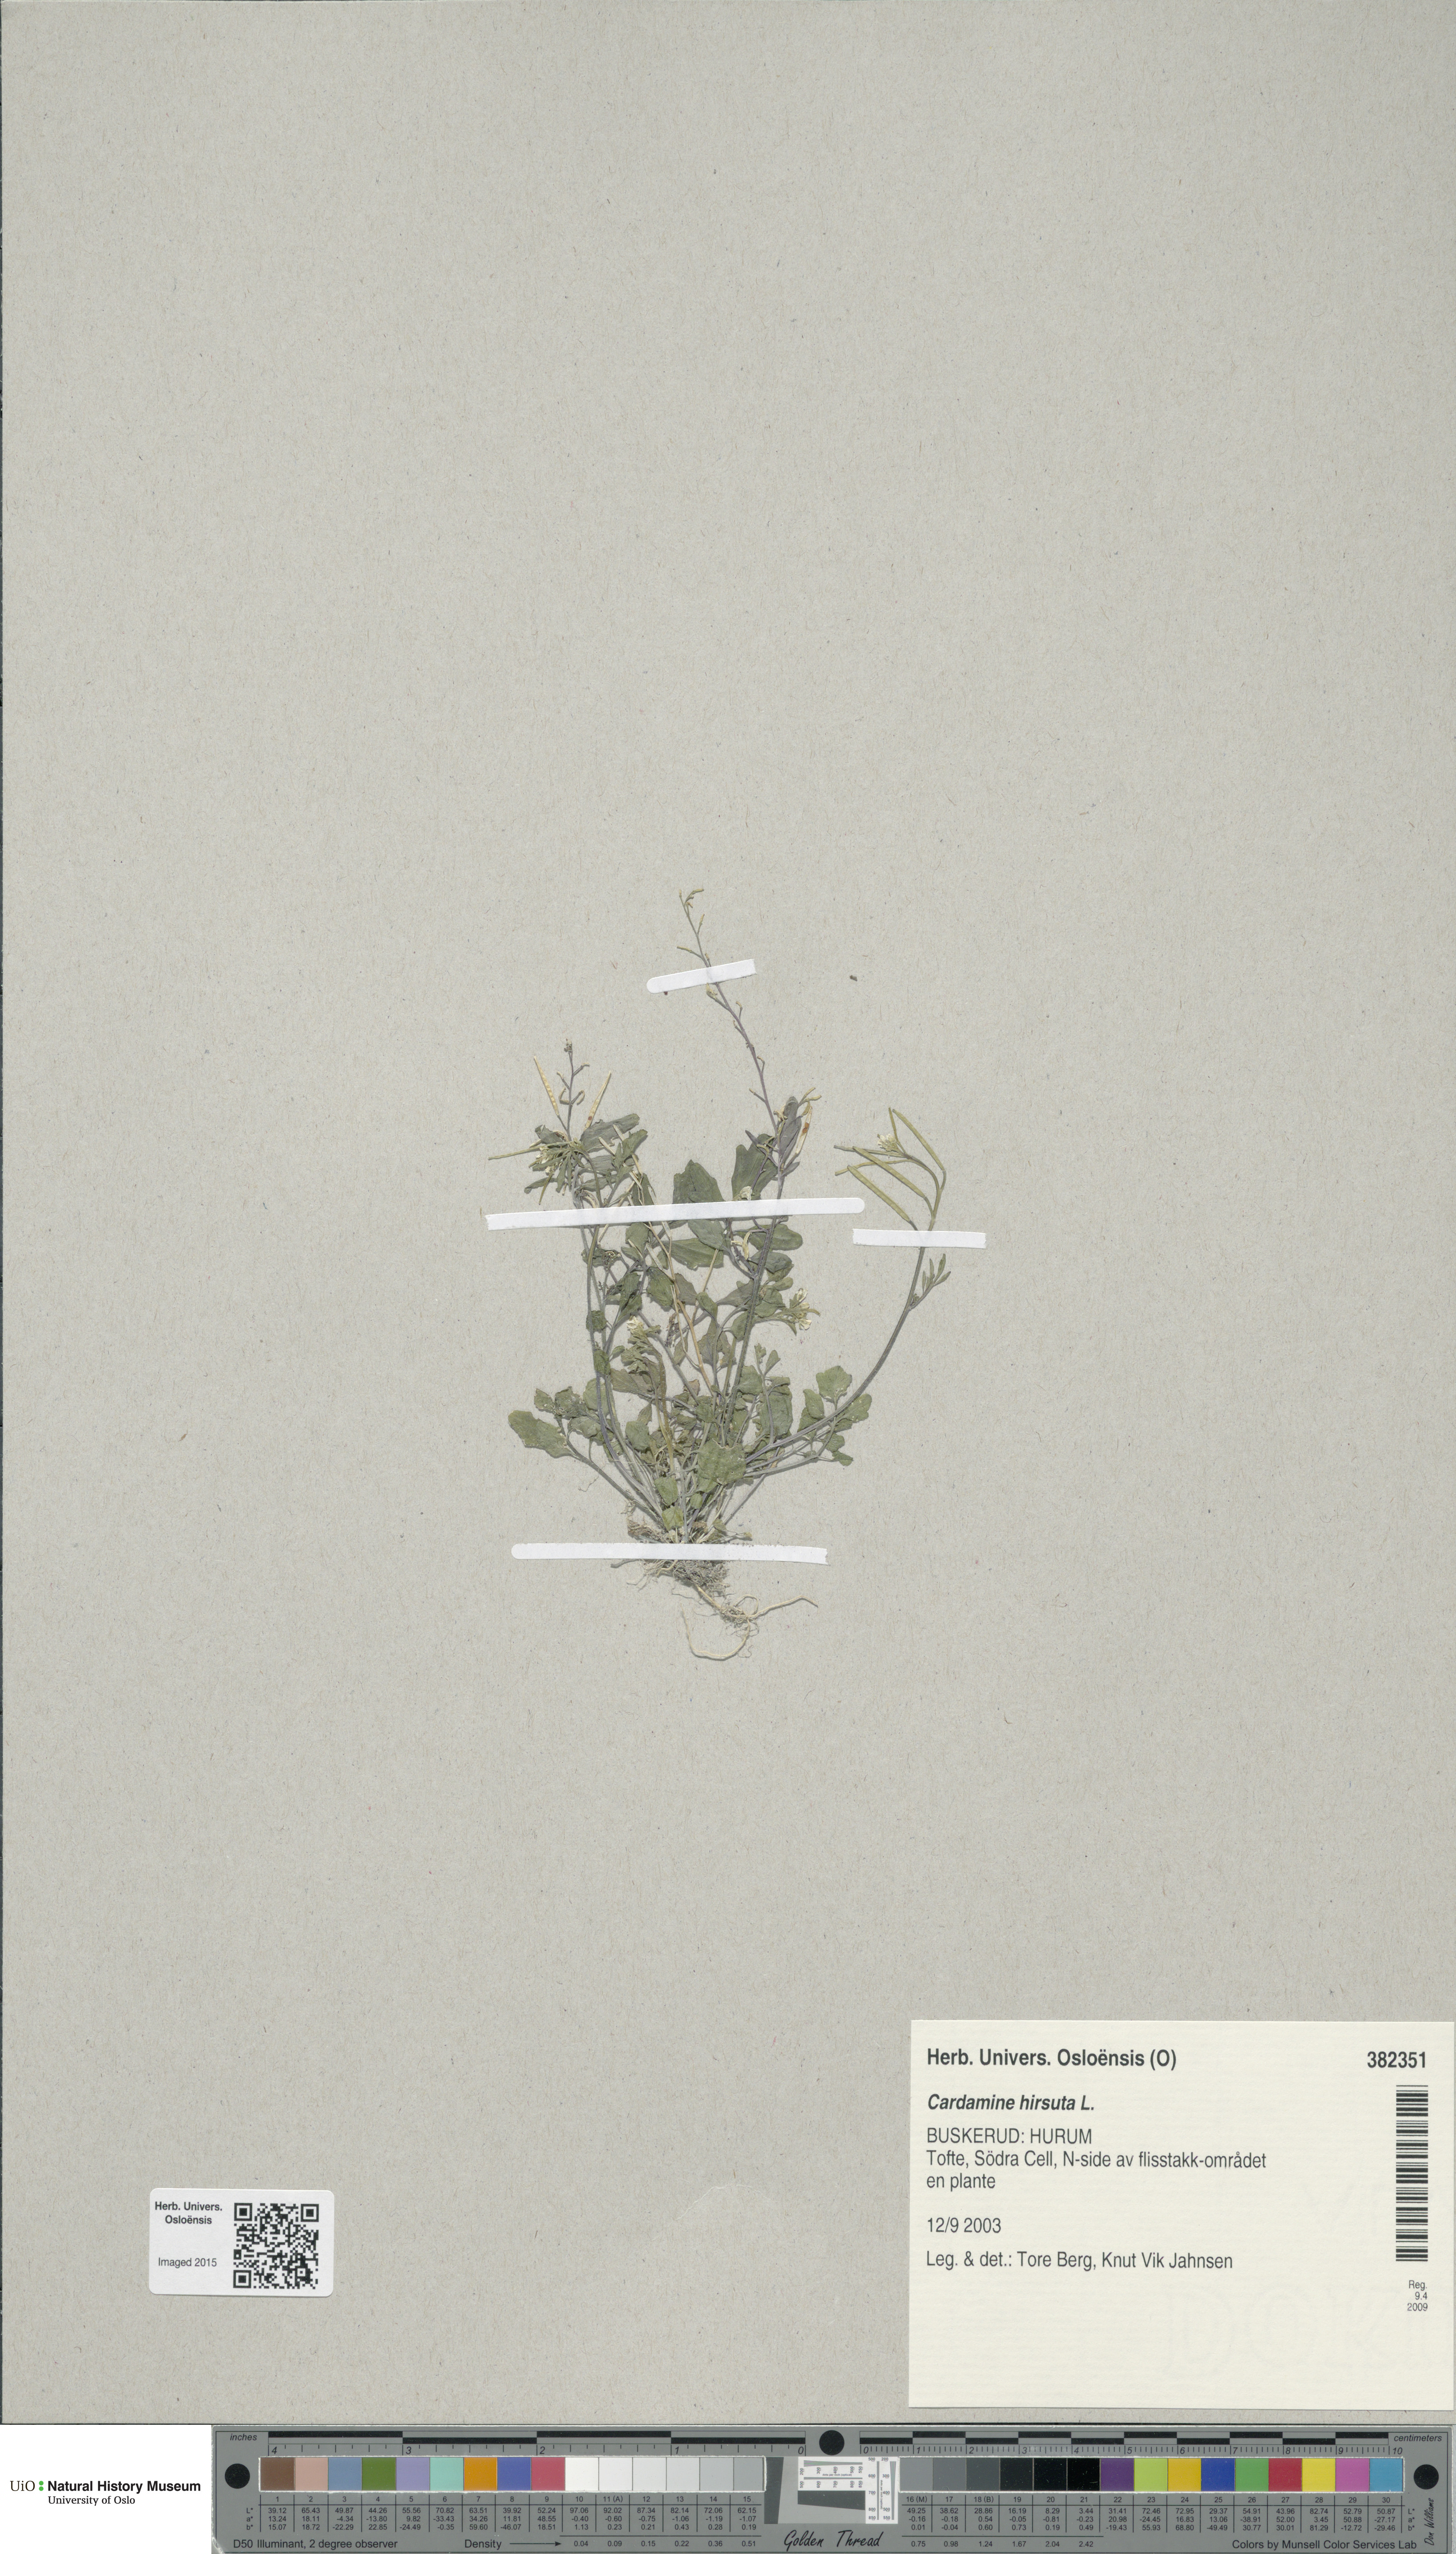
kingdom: Plantae
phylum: Tracheophyta
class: Magnoliopsida
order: Brassicales
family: Brassicaceae
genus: Cardamine
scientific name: Cardamine hirsuta
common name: Hairy bittercress
